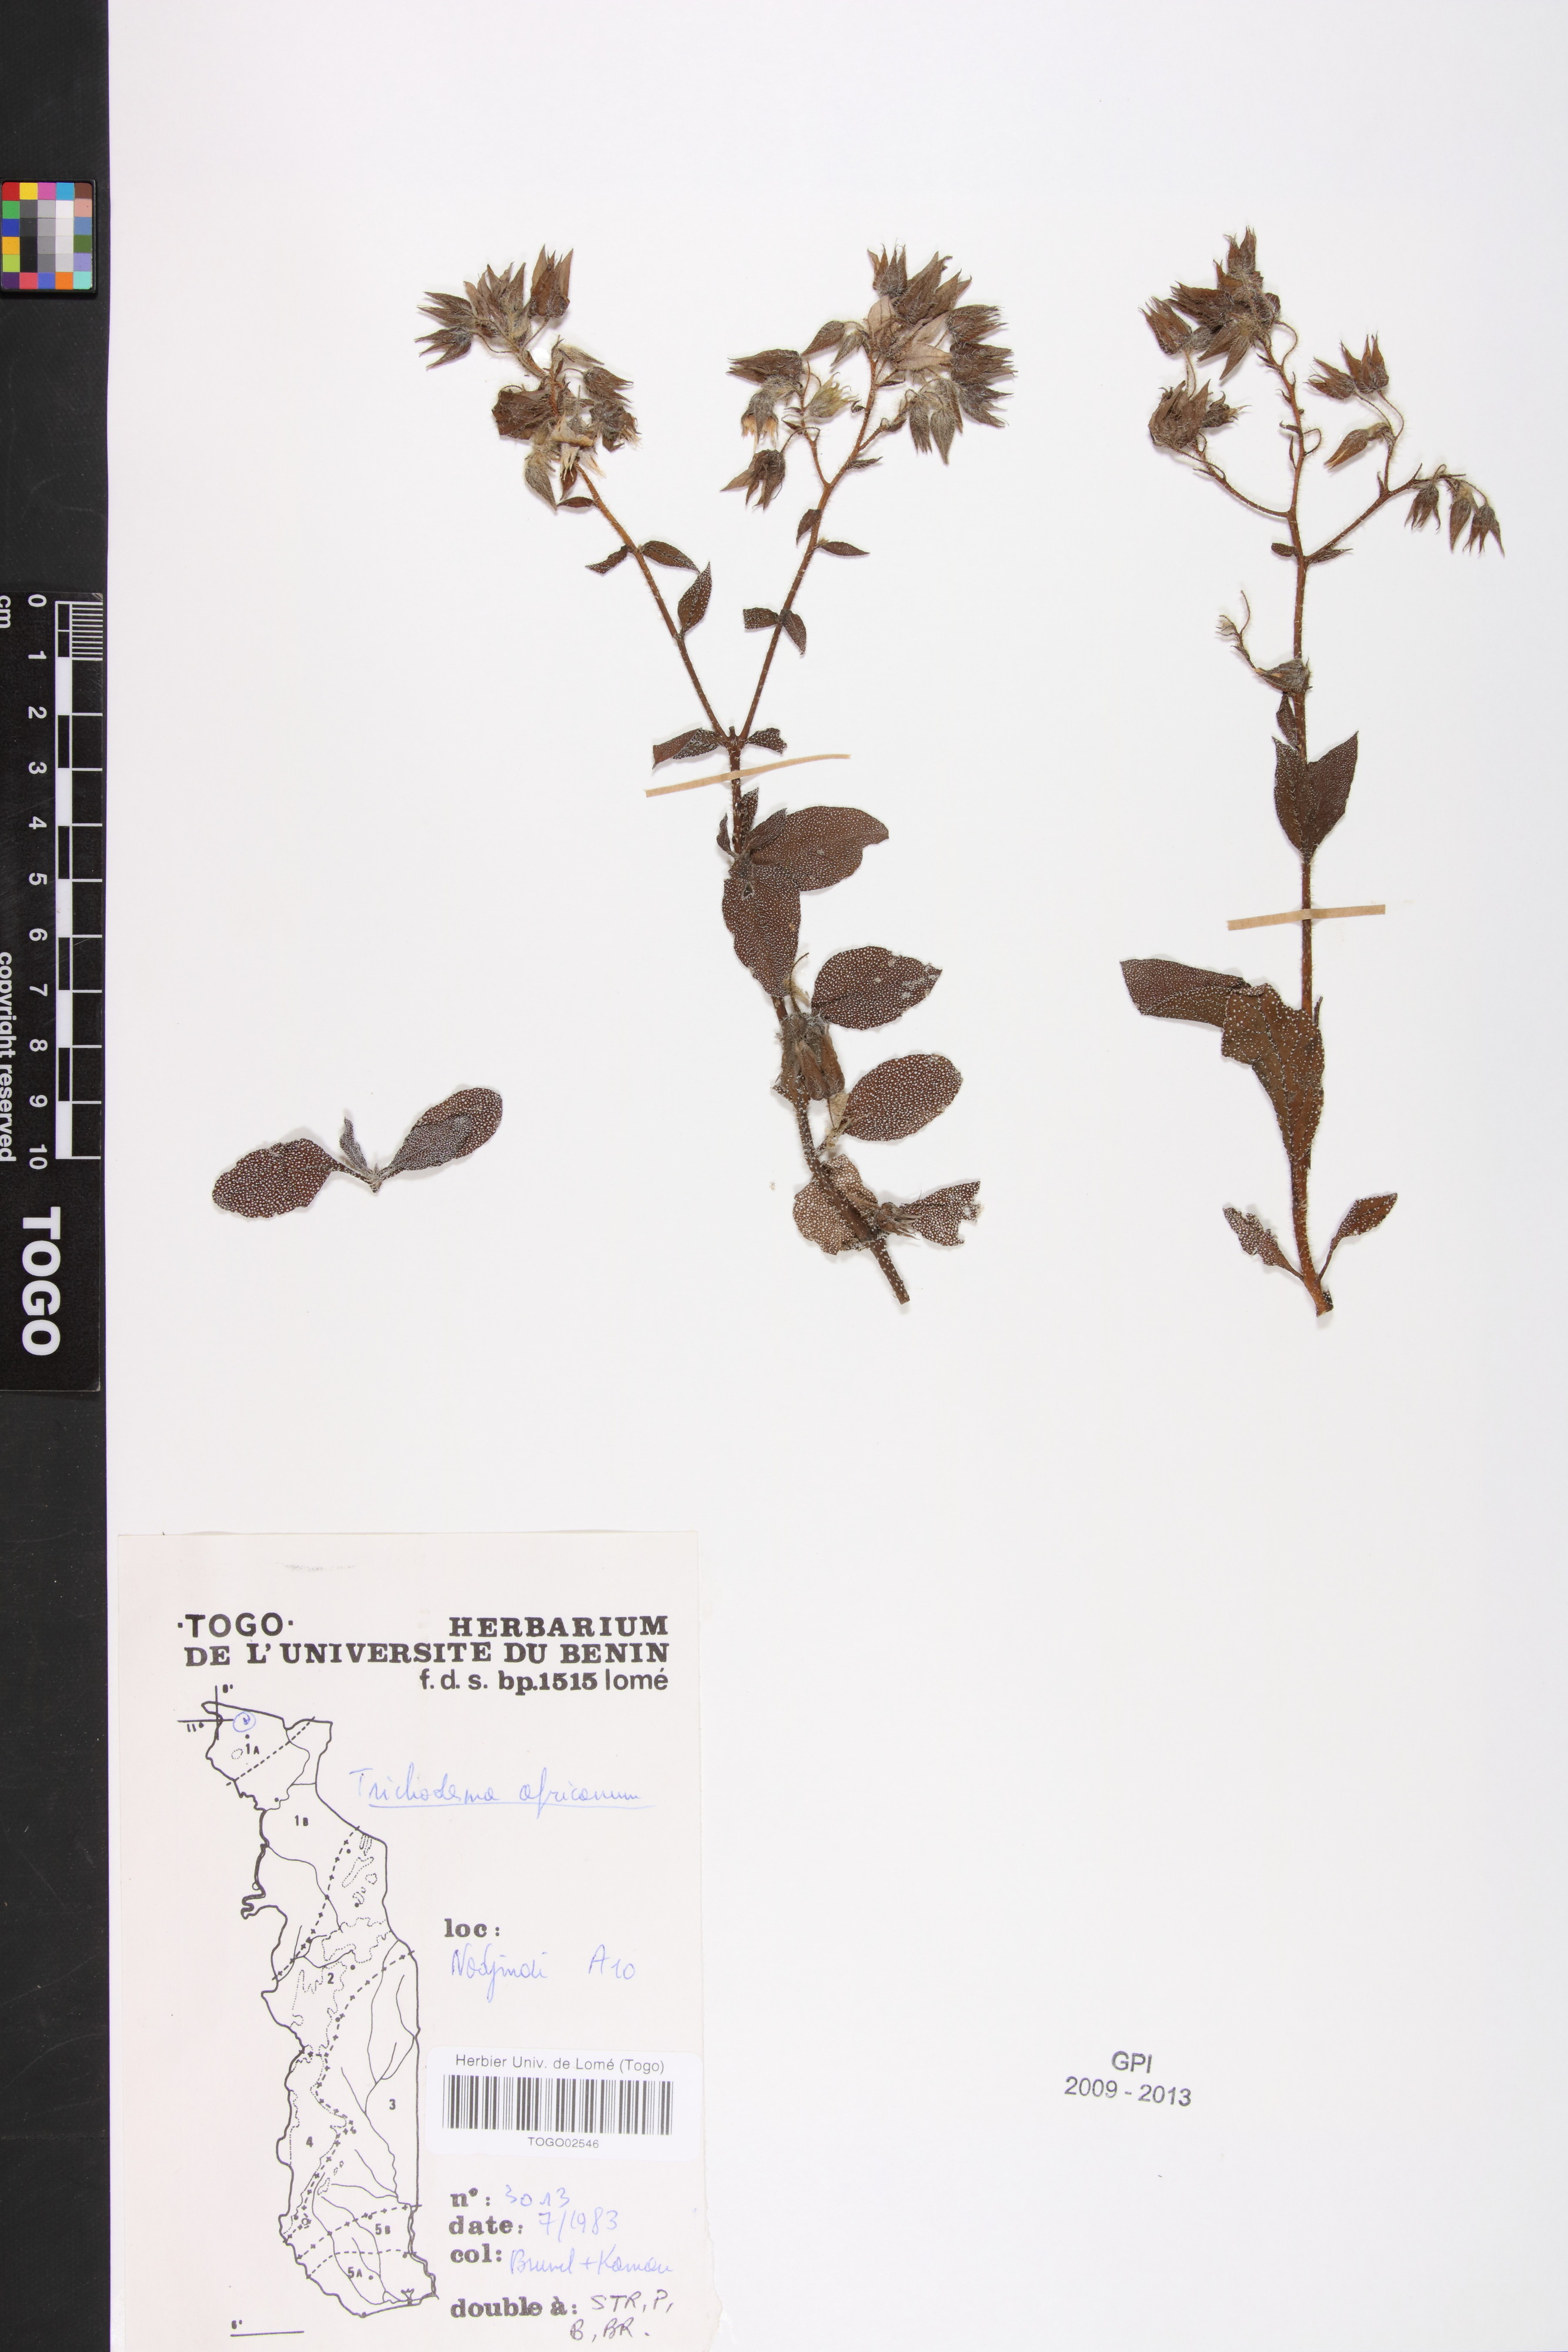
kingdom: Plantae
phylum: Tracheophyta
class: Magnoliopsida
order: Boraginales
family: Boraginaceae
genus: Trichodesma
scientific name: Trichodesma africanum
